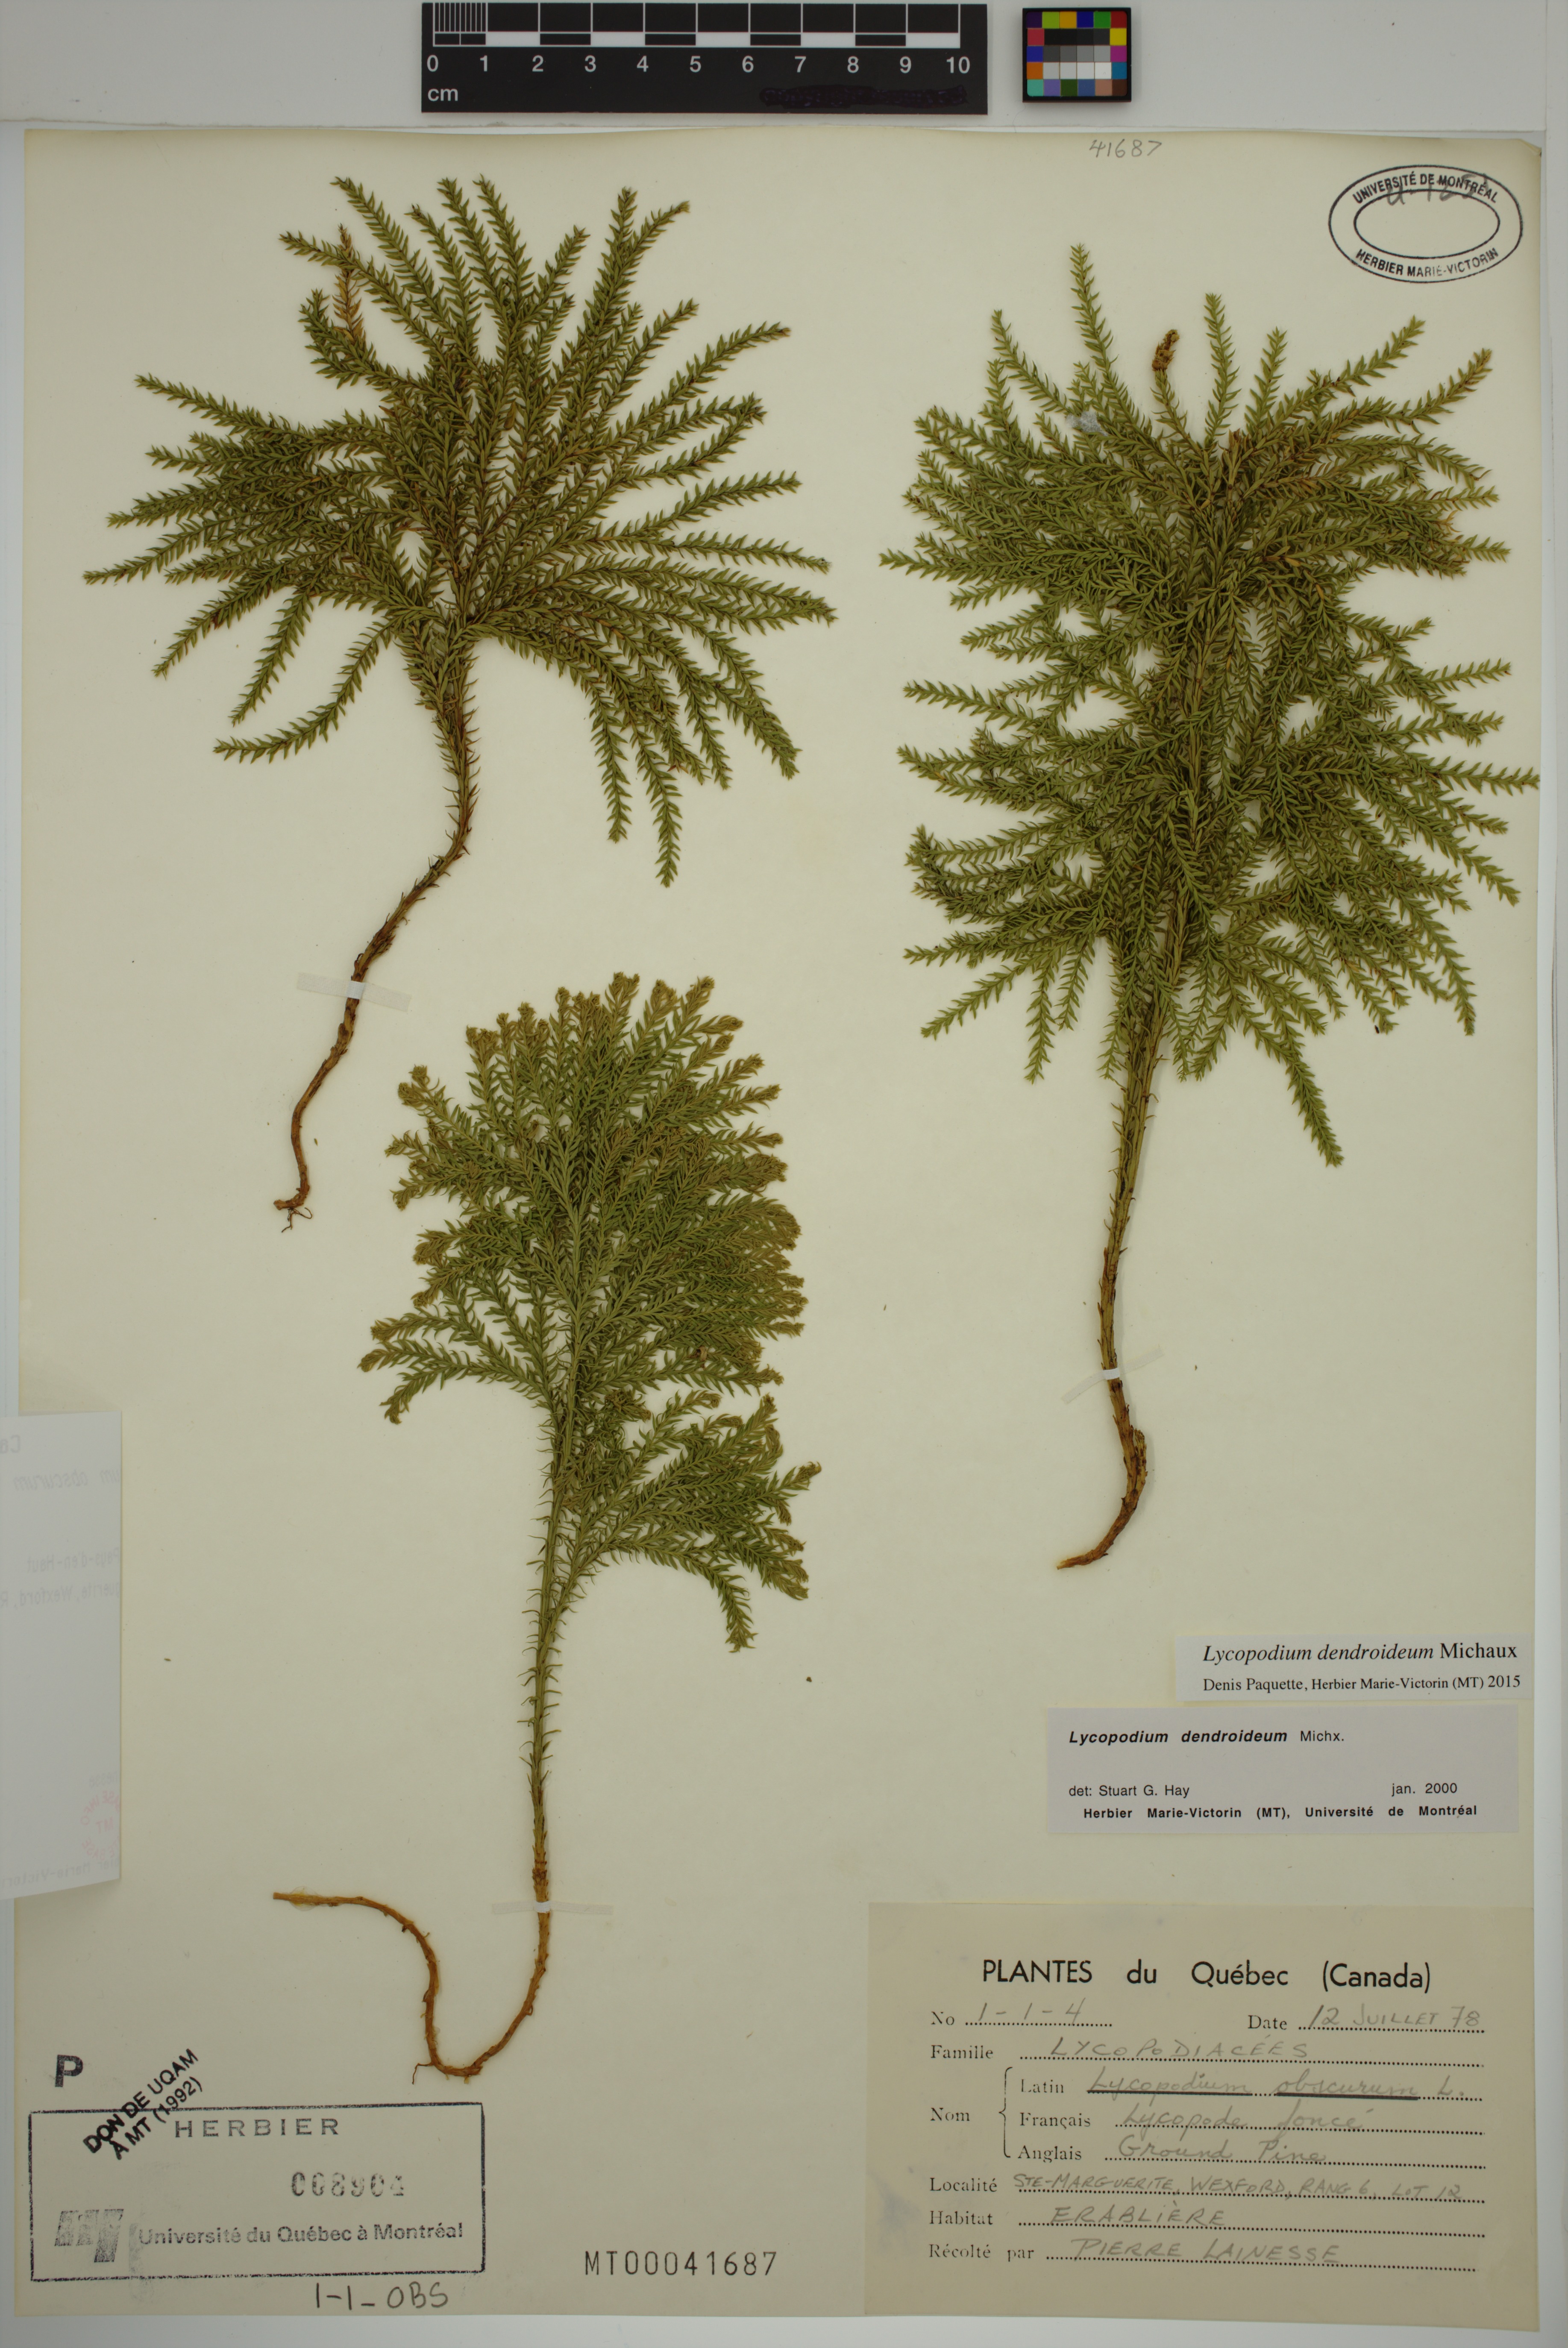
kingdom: Plantae
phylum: Tracheophyta
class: Lycopodiopsida
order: Lycopodiales
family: Lycopodiaceae
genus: Dendrolycopodium
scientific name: Dendrolycopodium dendroideum
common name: Northern tree-clubmoss
